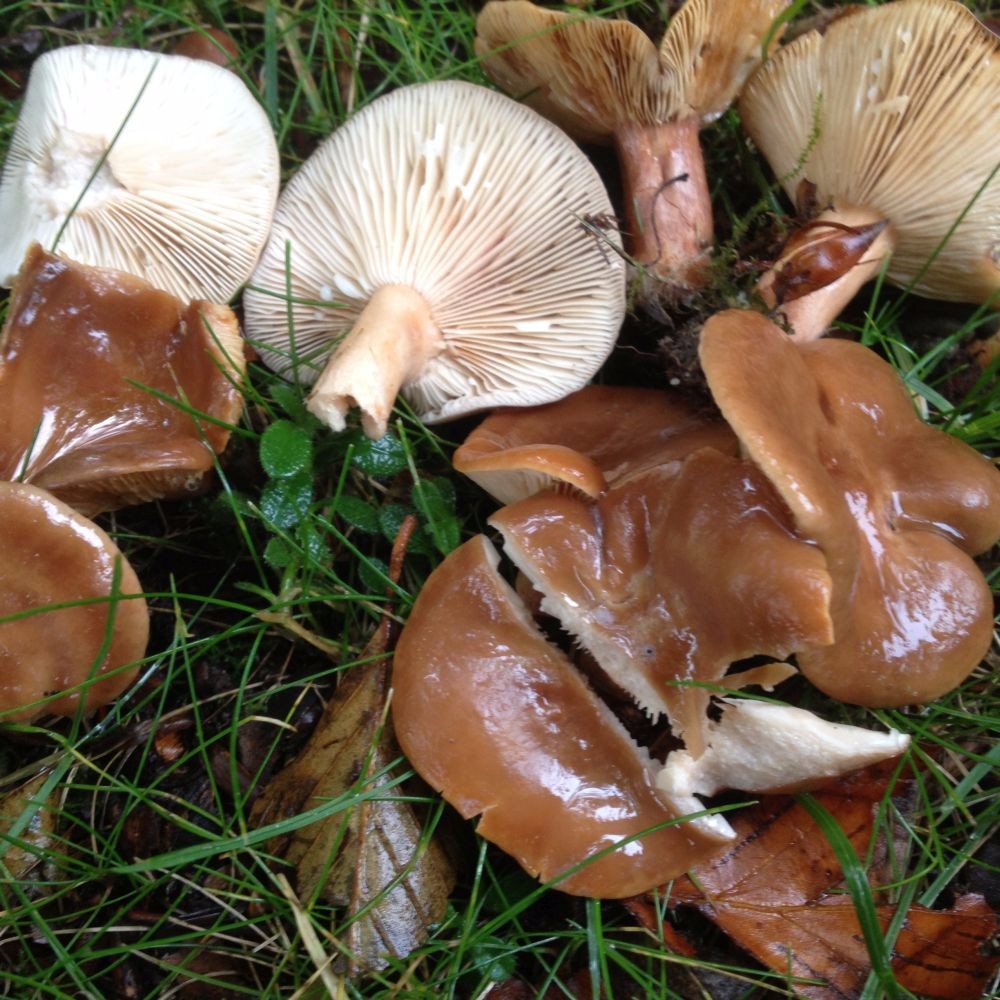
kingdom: Fungi
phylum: Basidiomycota
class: Agaricomycetes
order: Russulales
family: Russulaceae
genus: Lactarius
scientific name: Lactarius subdulcis
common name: sødlig mælkehat
